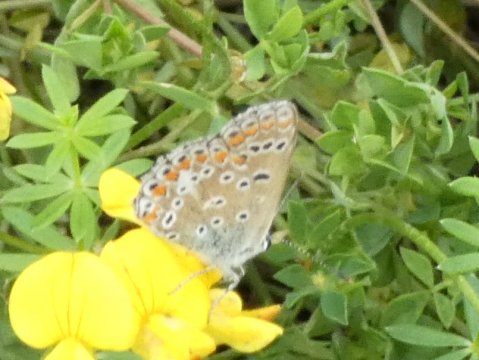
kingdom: Animalia
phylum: Arthropoda
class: Insecta
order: Lepidoptera
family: Lycaenidae
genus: Polyommatus
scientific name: Polyommatus icarus
